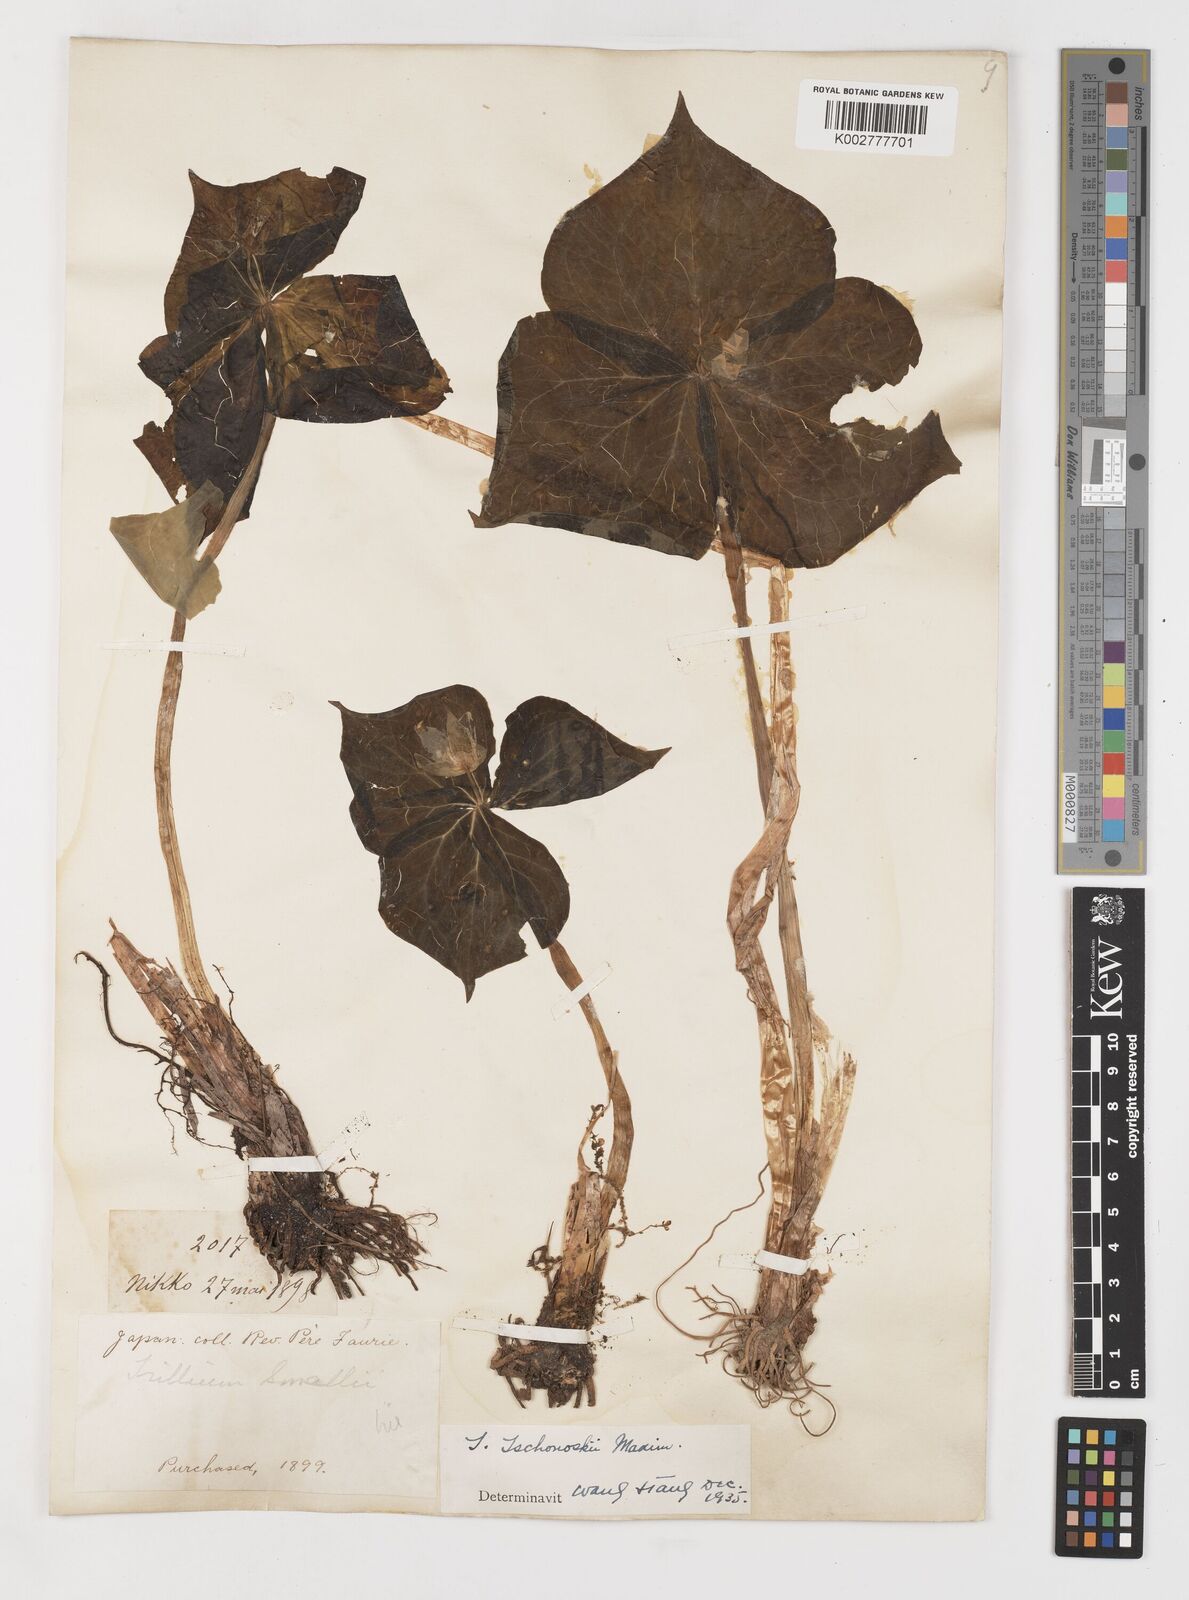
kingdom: Plantae
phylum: Tracheophyta
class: Liliopsida
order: Liliales
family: Melanthiaceae
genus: Trillium
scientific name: Trillium tschonoskii
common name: A pearl on head
